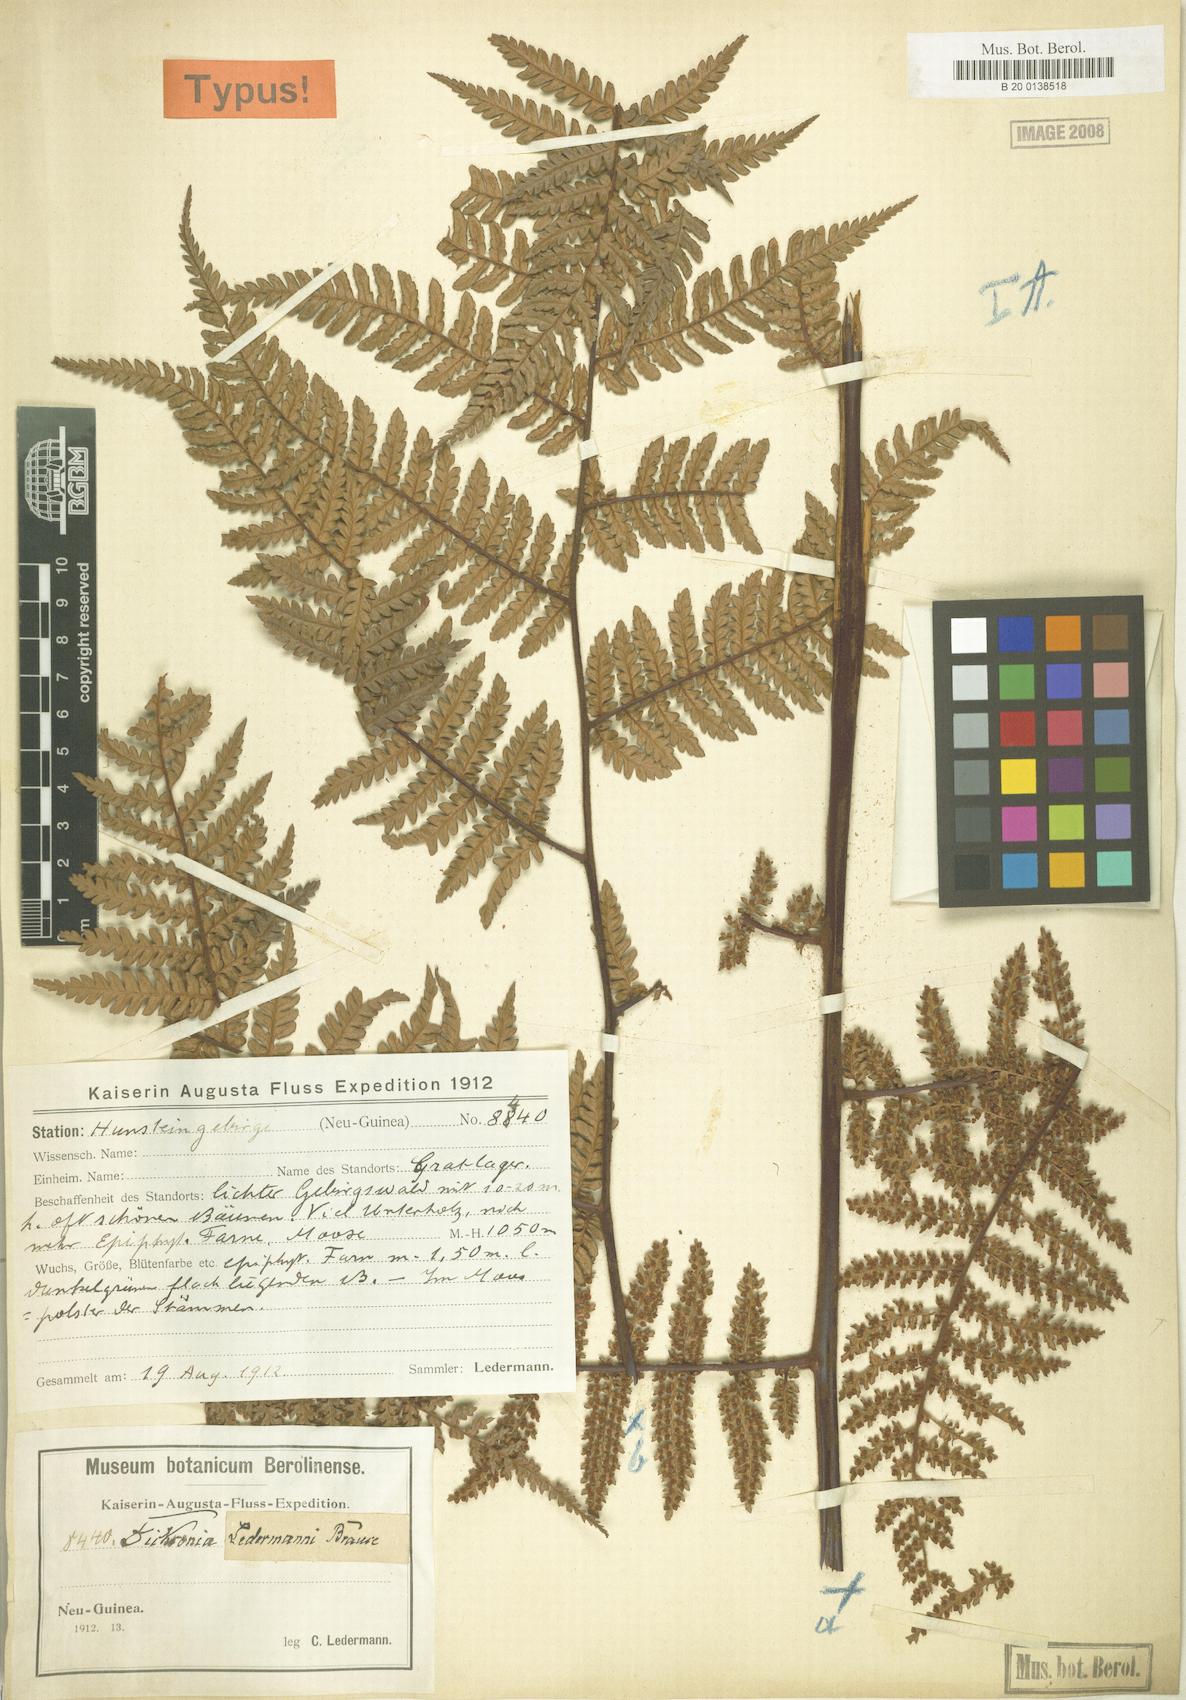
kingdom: Plantae
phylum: Tracheophyta
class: Polypodiopsida
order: Cyatheales
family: Dicksoniaceae
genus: Dicksonia
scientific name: Dicksonia grandis
